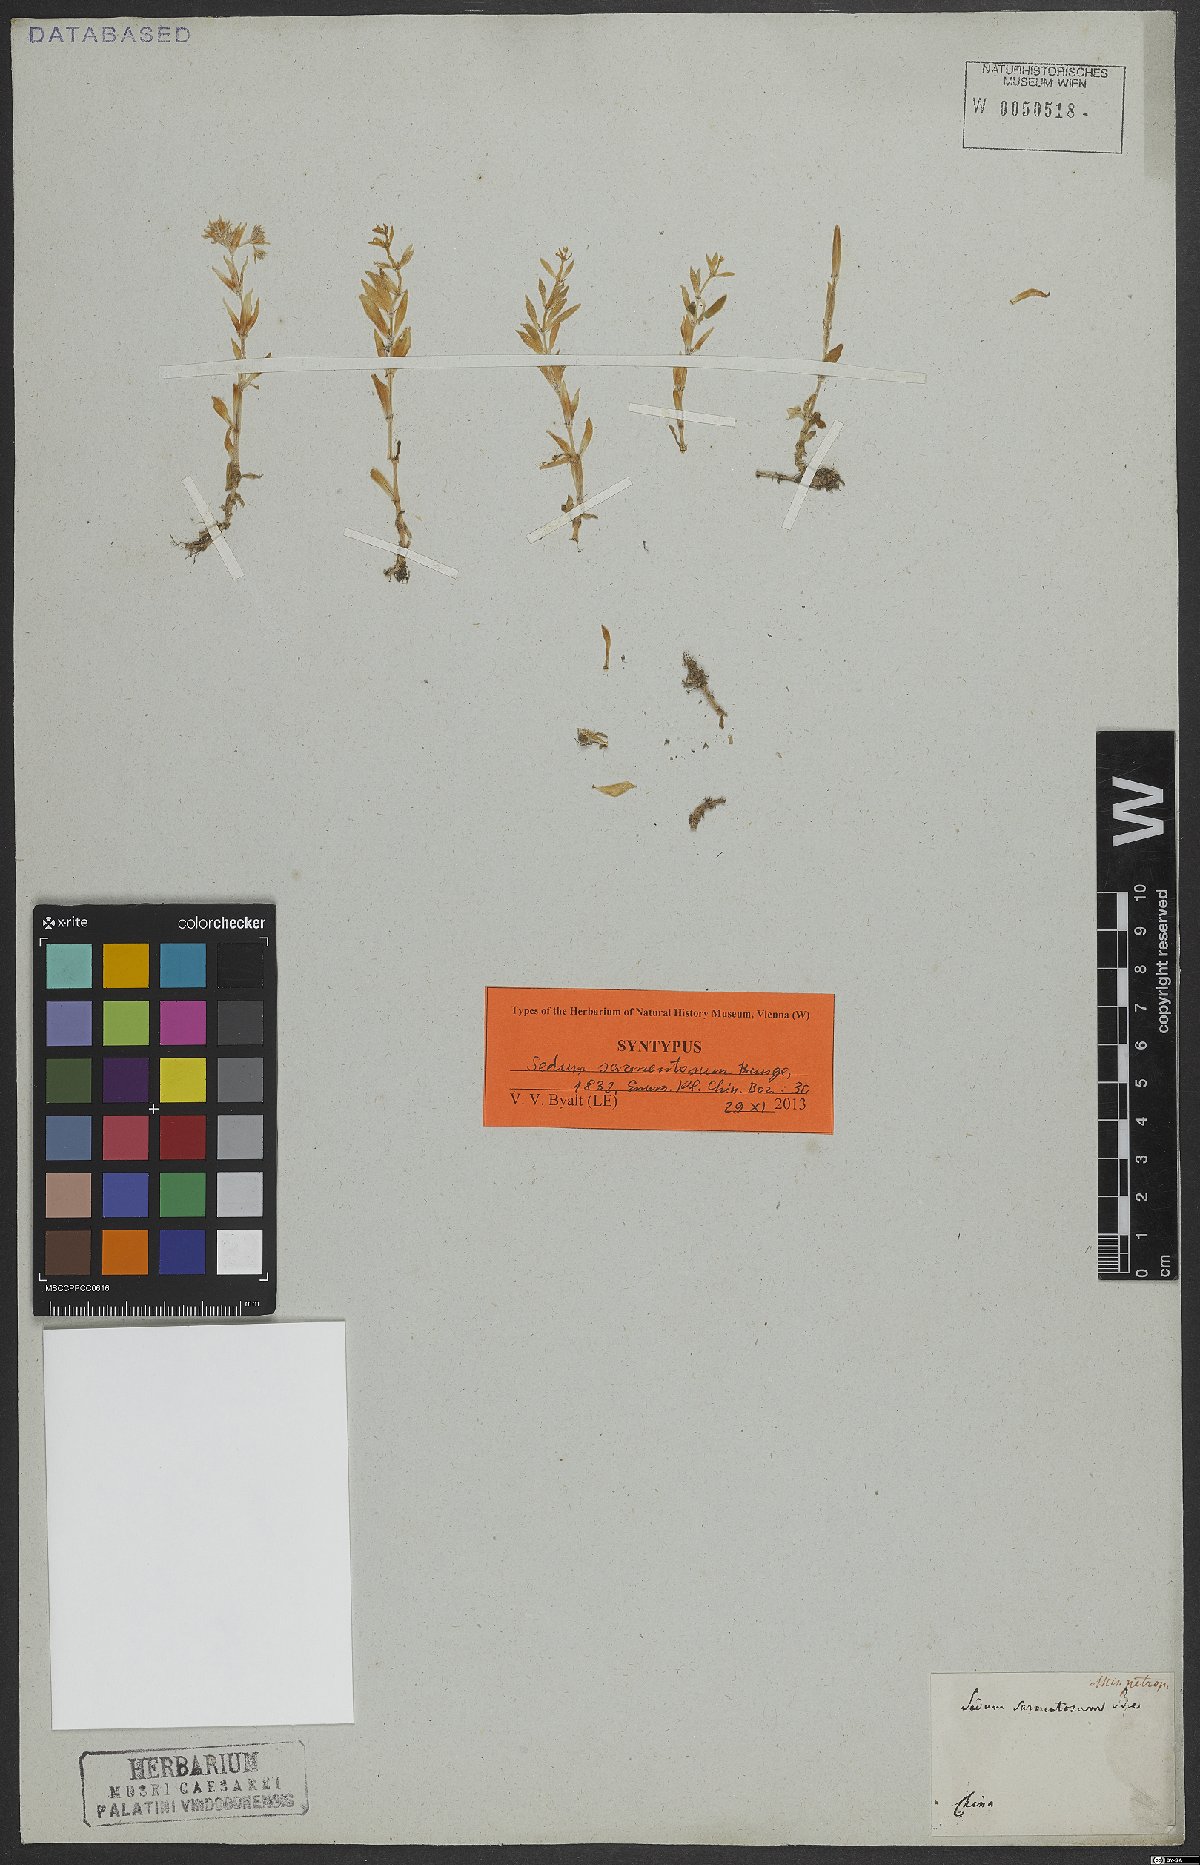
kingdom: Plantae
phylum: Tracheophyta
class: Magnoliopsida
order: Saxifragales
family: Crassulaceae
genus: Sedum
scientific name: Sedum sarmentosum
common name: Stringy stonecrop
